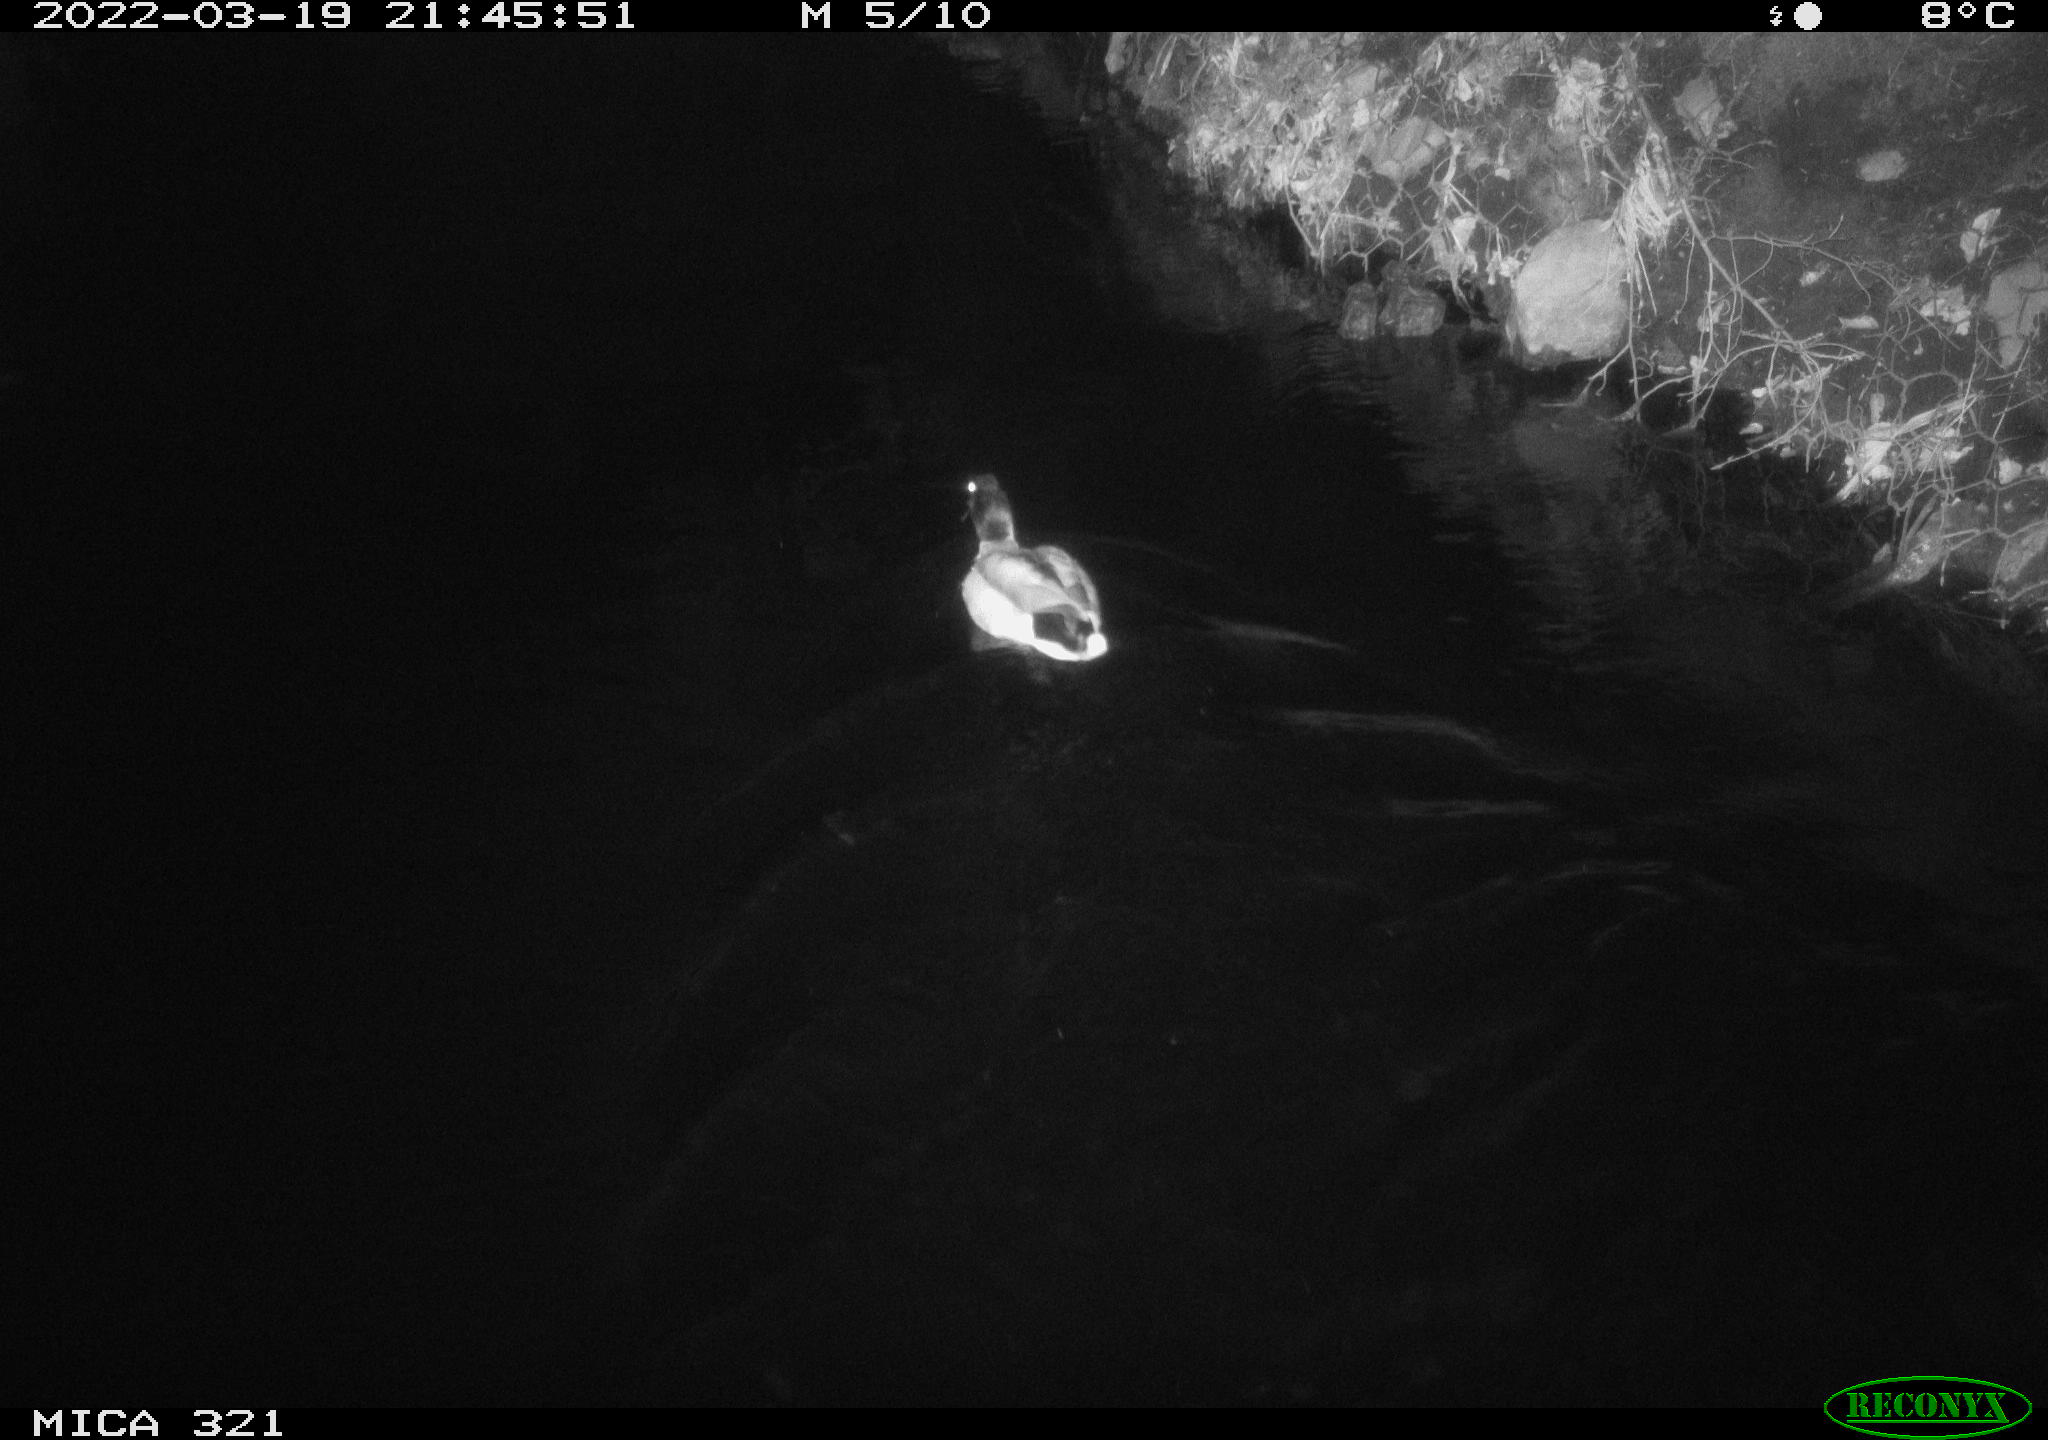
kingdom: Animalia
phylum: Chordata
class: Aves
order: Anseriformes
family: Anatidae
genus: Anas
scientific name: Anas platyrhynchos
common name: Mallard
